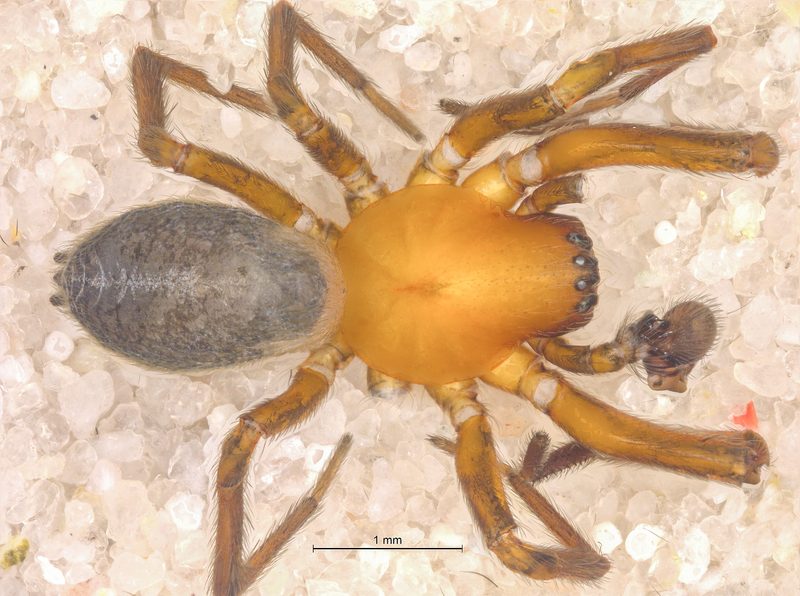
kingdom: Animalia
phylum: Arthropoda
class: Arachnida
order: Araneae
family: Titanoecidae
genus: Titanoeca
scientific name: Titanoeca spominima
